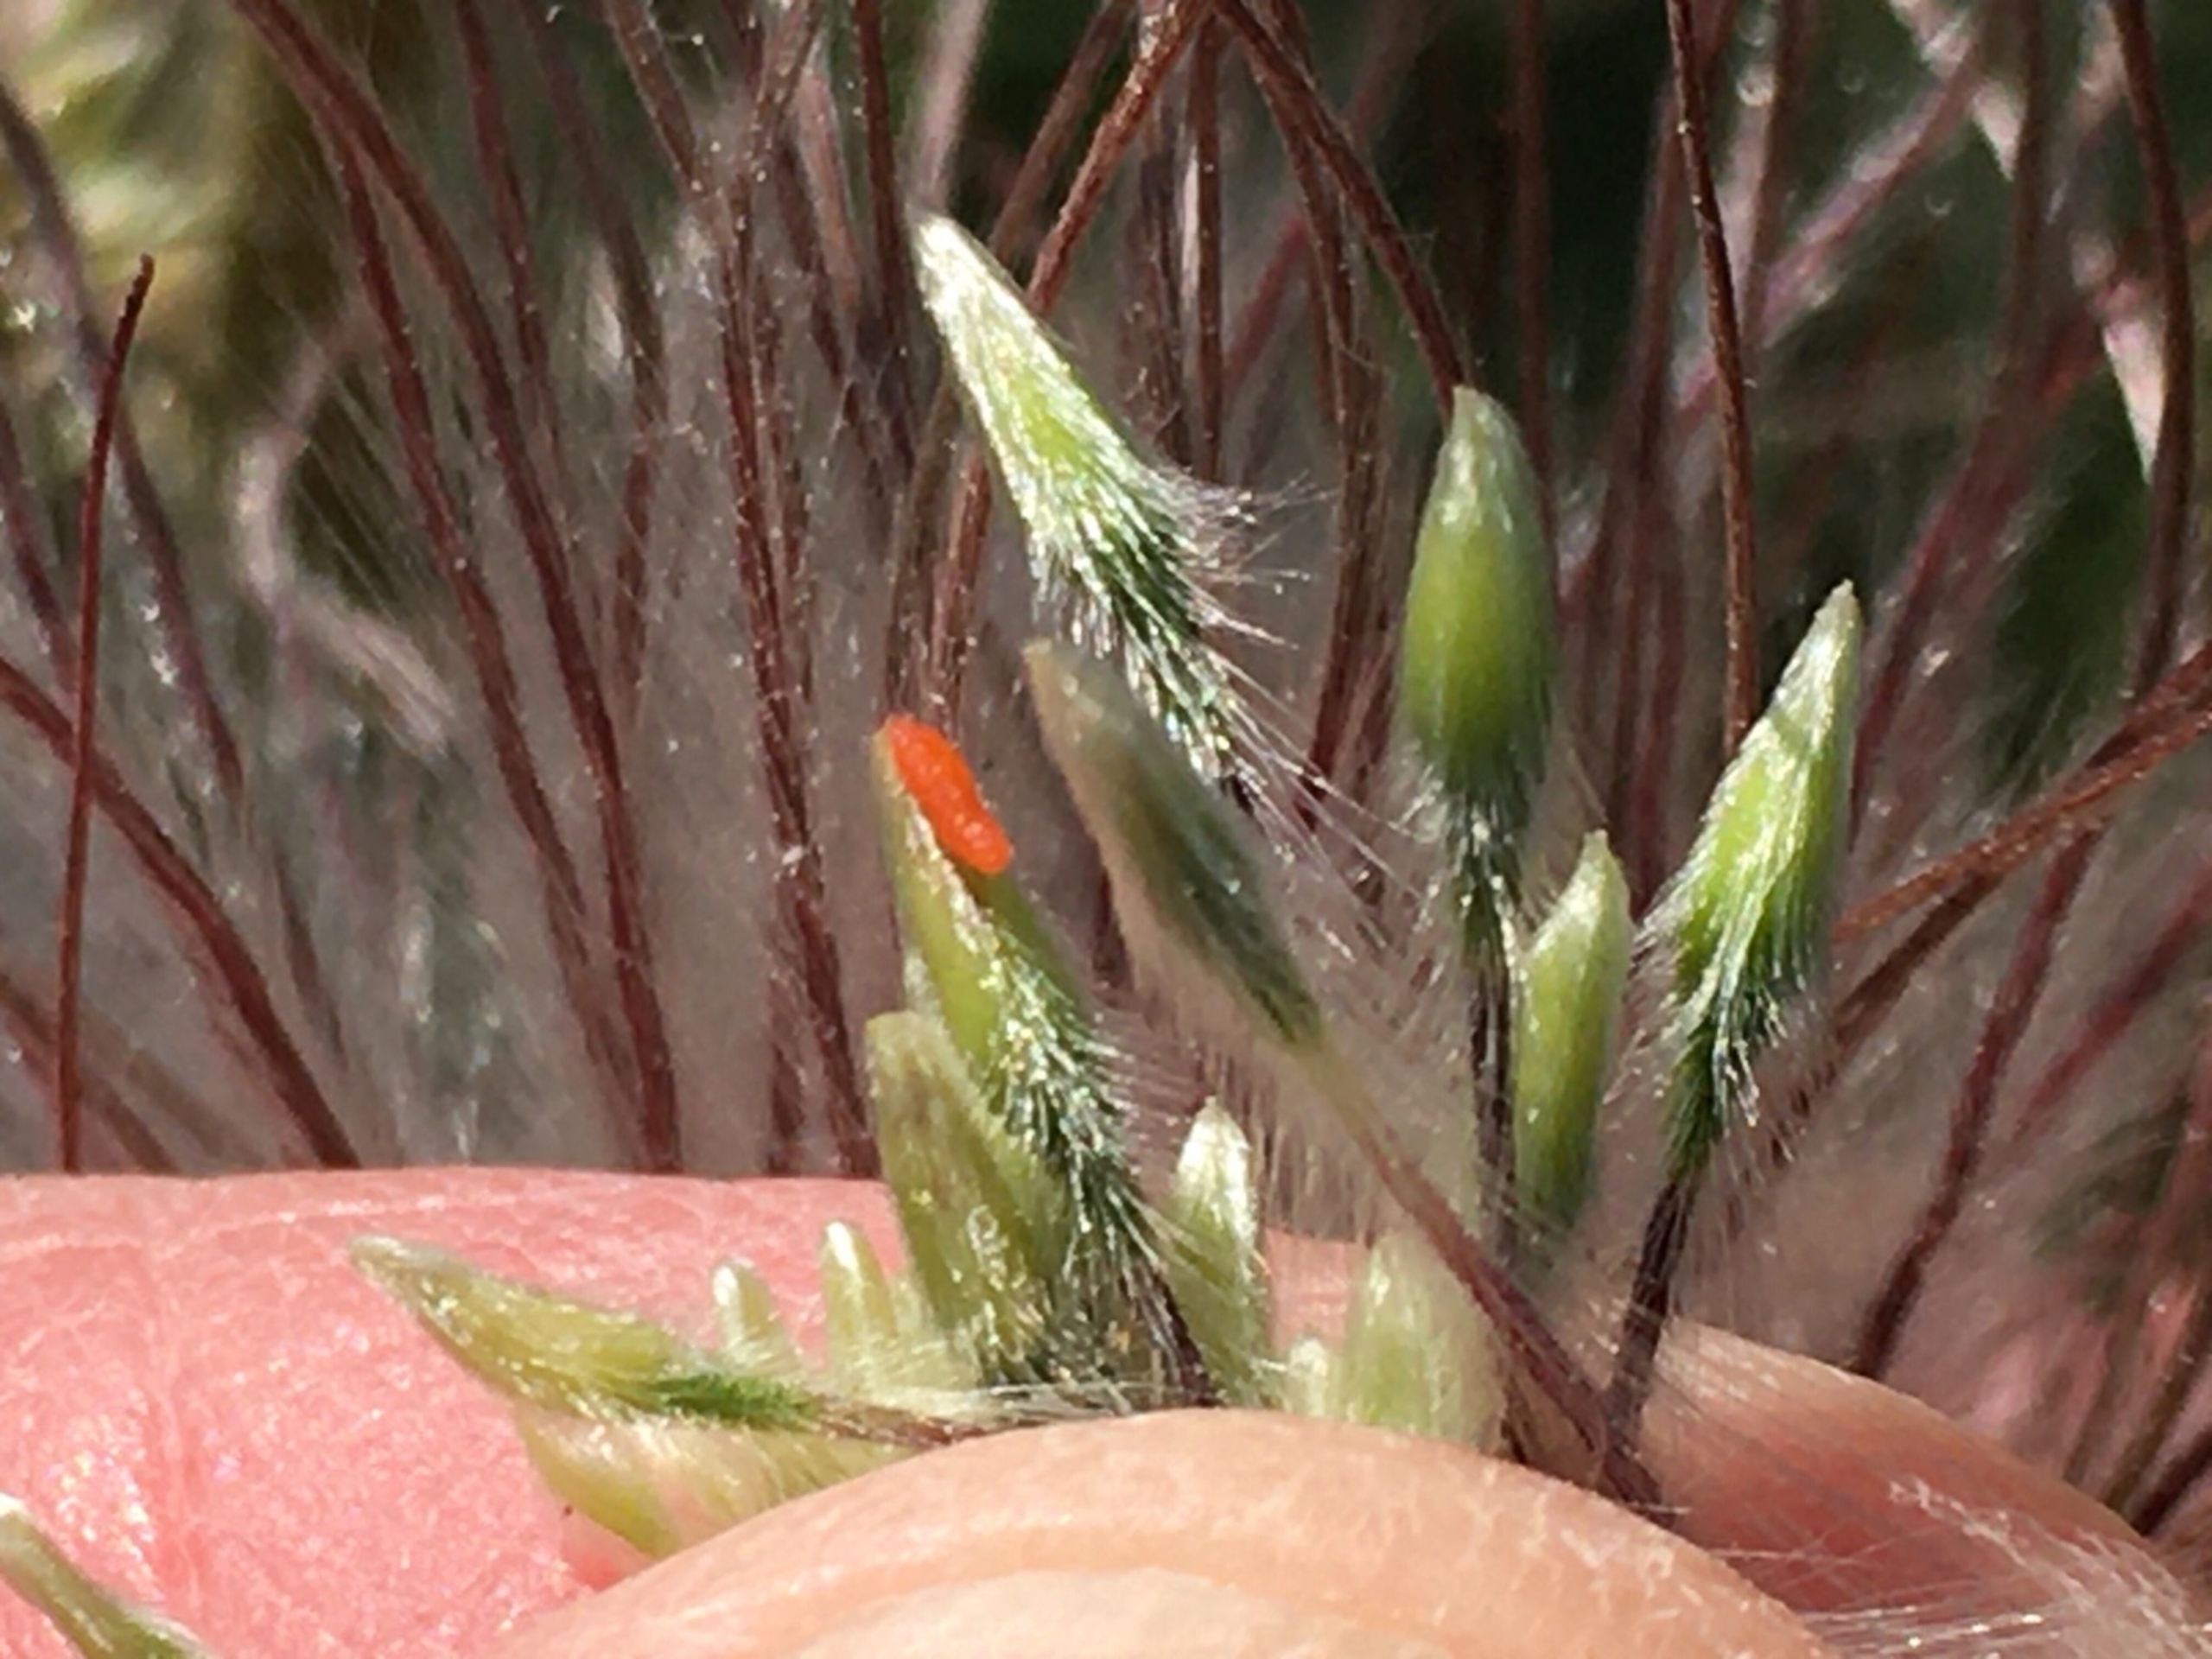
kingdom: Animalia
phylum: Arthropoda
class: Insecta
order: Diptera
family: Cecidomyiidae
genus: Dasineura
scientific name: Dasineura pulsatillae
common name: Kobjældegalmyg
